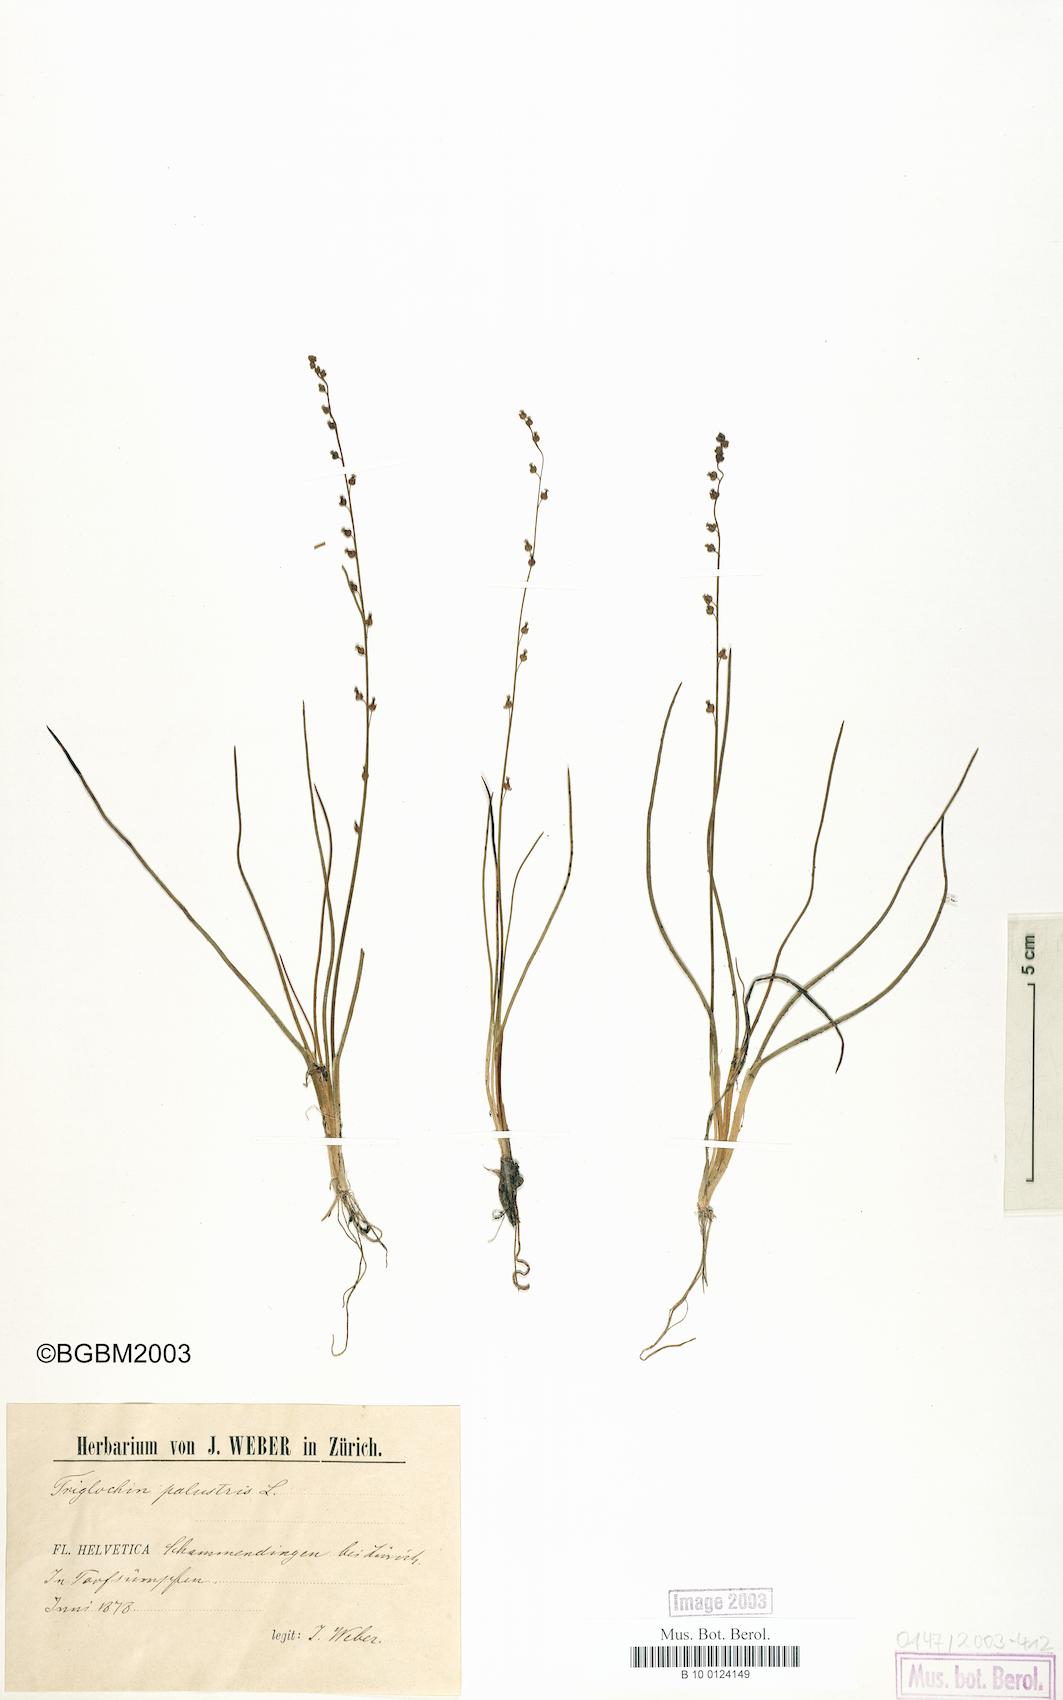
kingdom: Plantae
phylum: Tracheophyta
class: Liliopsida
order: Alismatales
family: Juncaginaceae
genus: Triglochin
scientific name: Triglochin palustris
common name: Marsh arrowgrass
